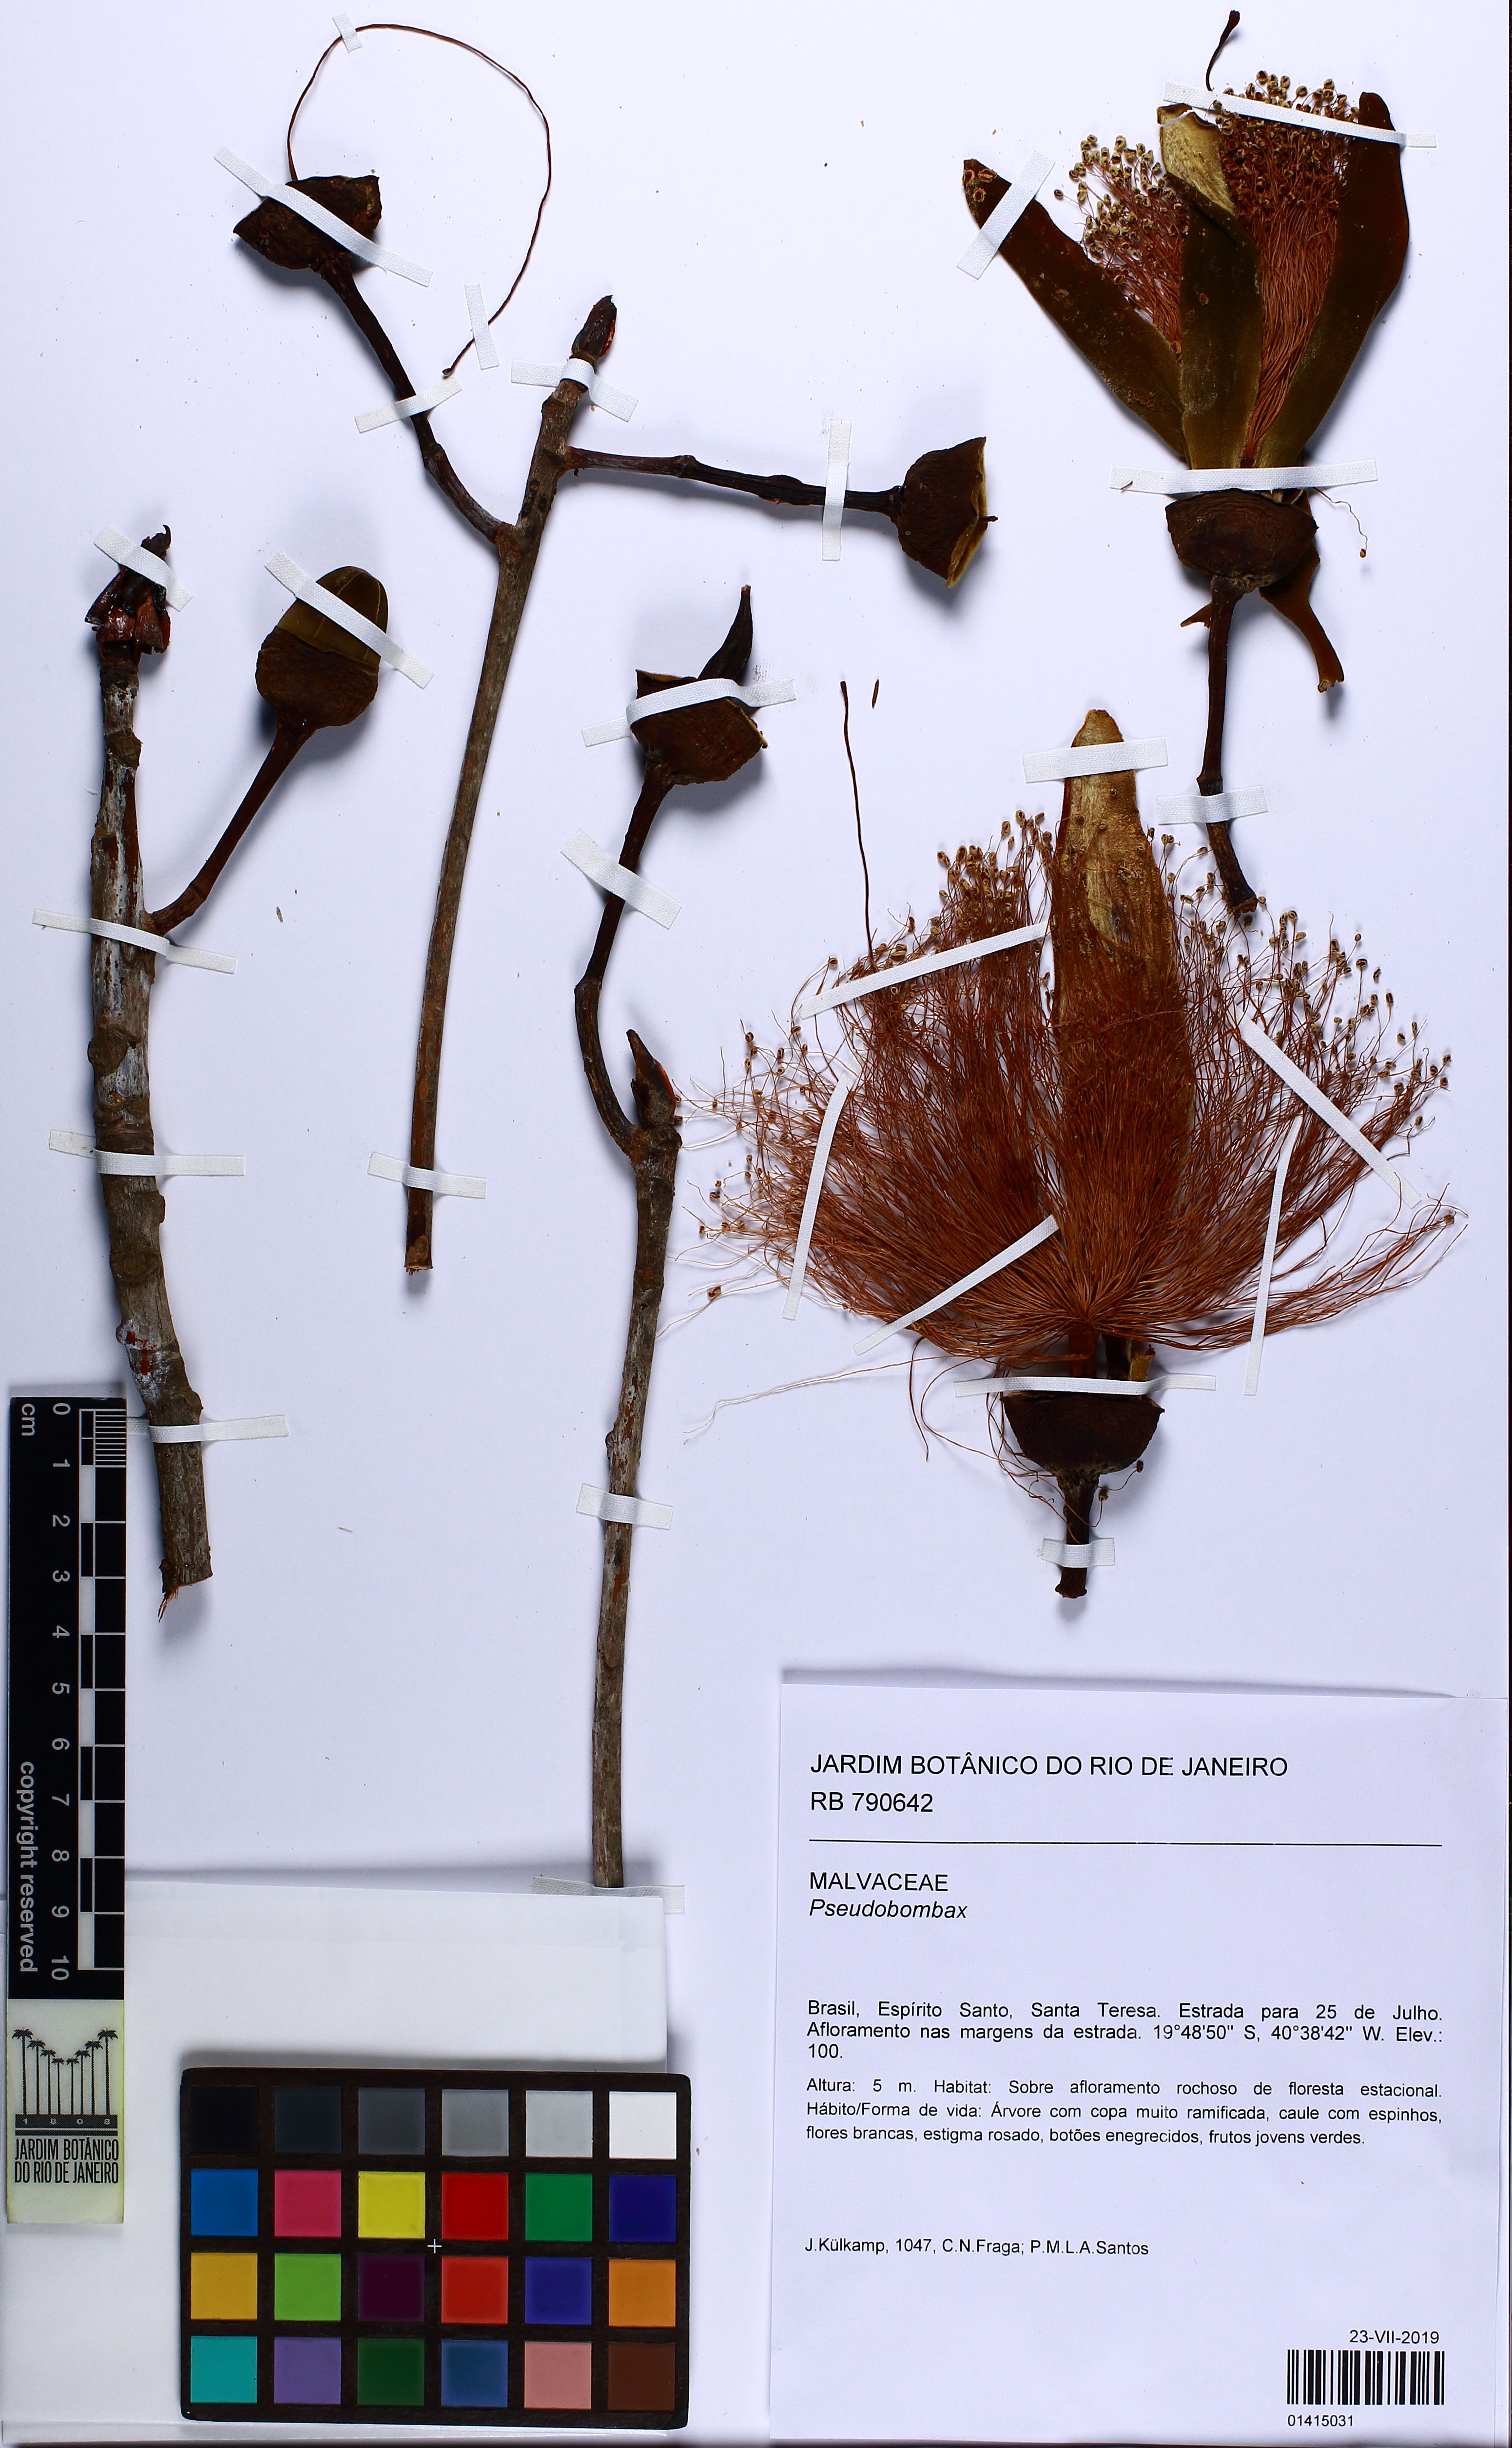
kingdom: Plantae
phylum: Tracheophyta
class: Magnoliopsida
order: Malvales
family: Malvaceae
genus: Pseudobombax
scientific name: Pseudobombax petropolitanum
